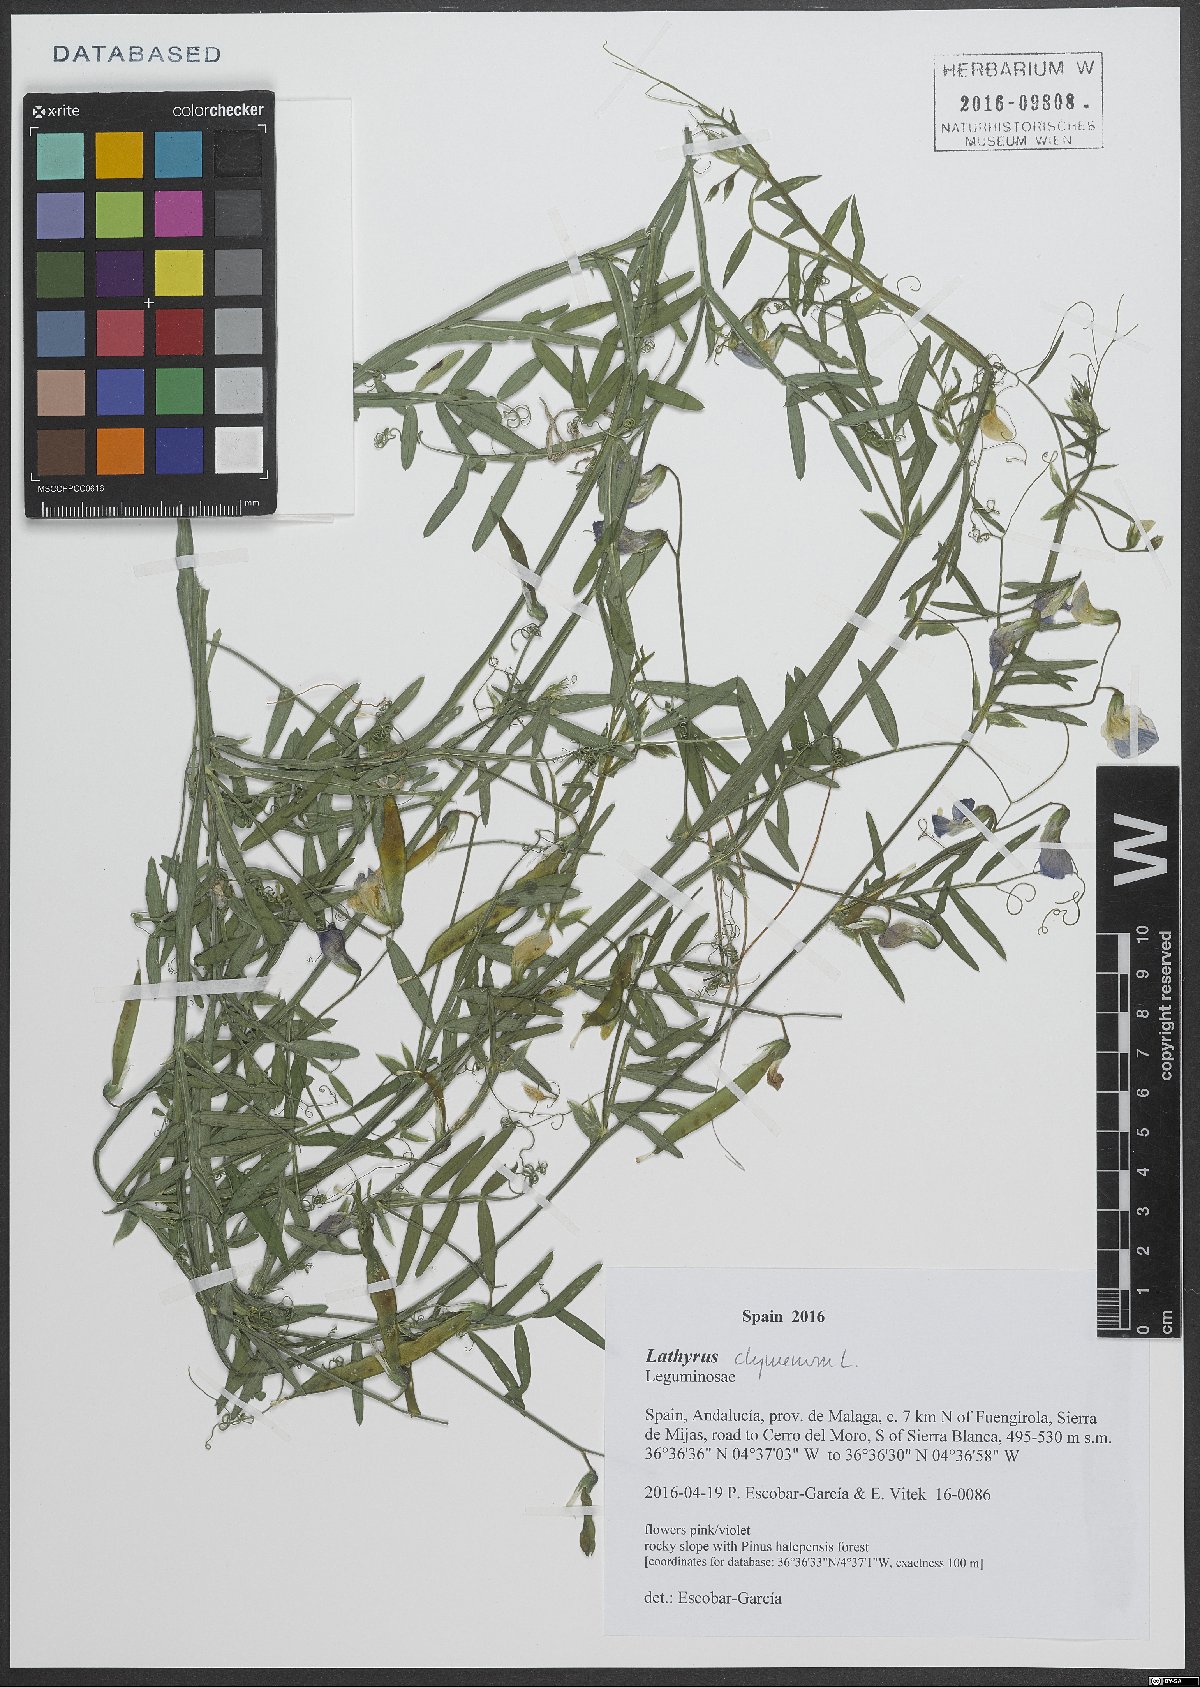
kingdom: Plantae
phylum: Tracheophyta
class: Magnoliopsida
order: Fabales
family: Fabaceae
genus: Lathyrus
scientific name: Lathyrus clymenum
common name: Spanish vetchling
